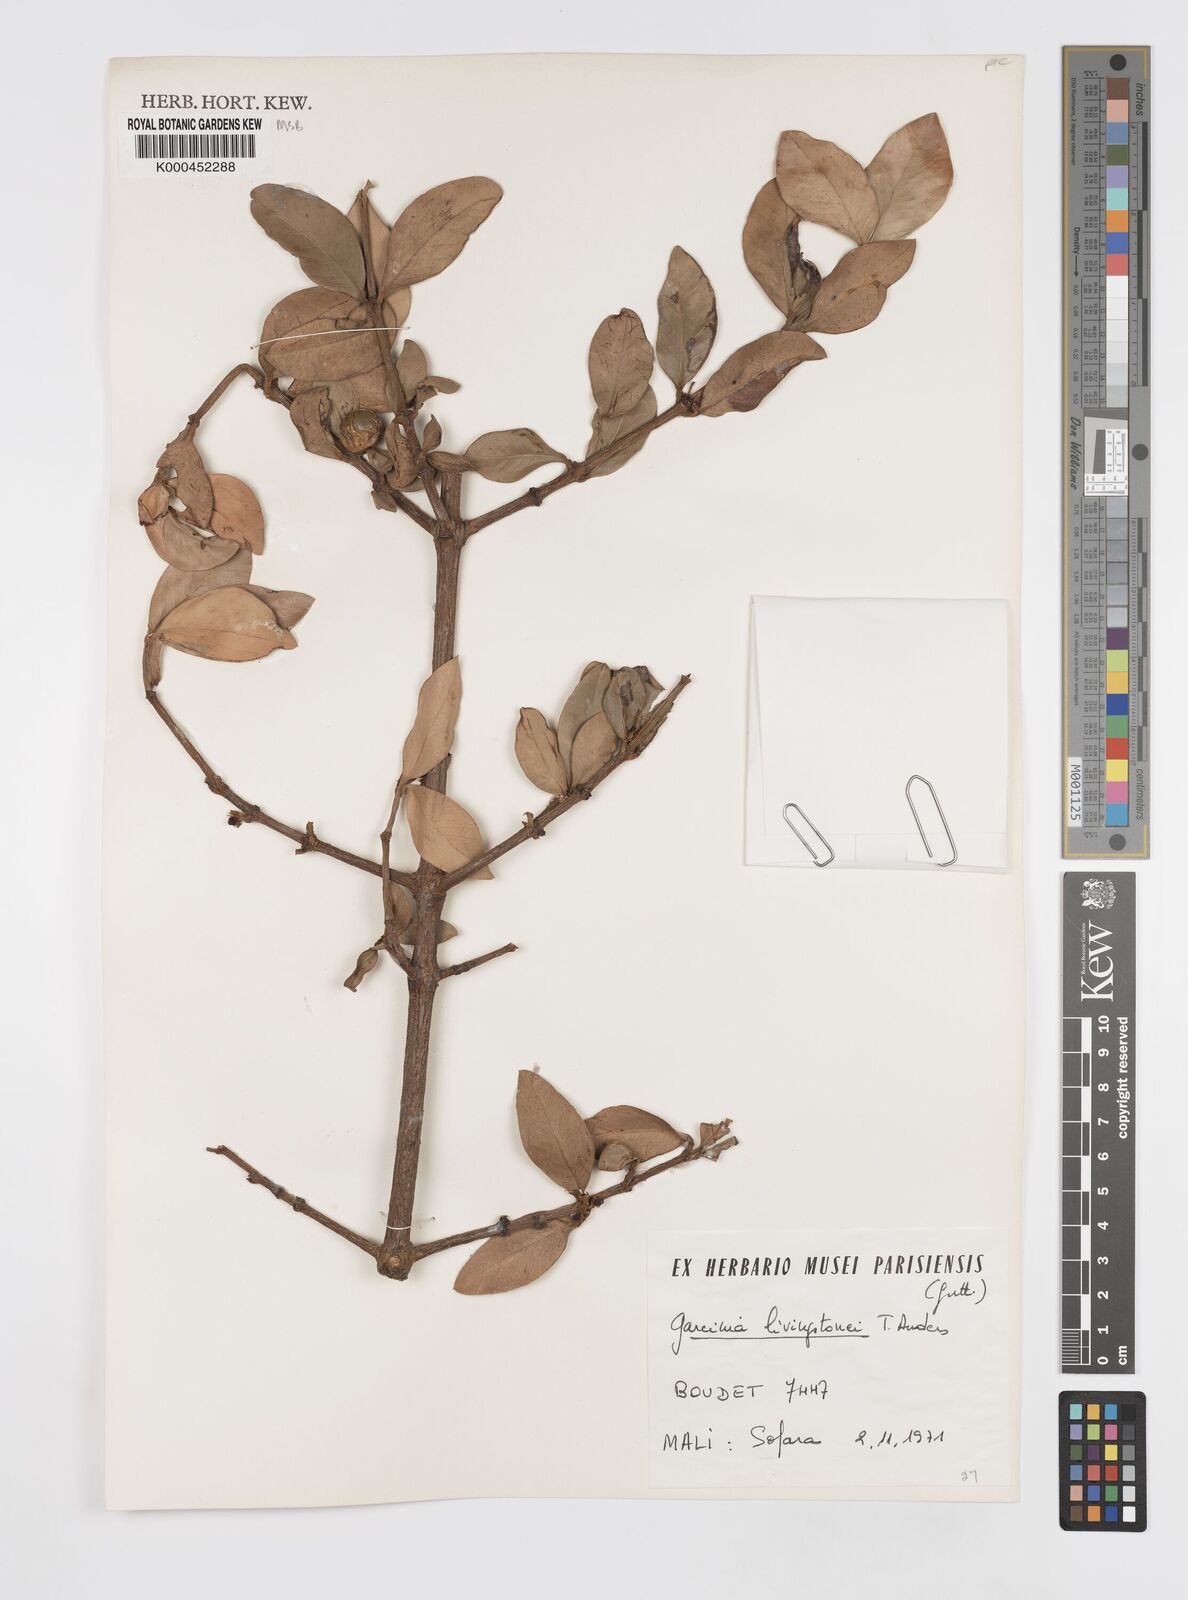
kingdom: Plantae
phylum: Tracheophyta
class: Magnoliopsida
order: Malpighiales
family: Clusiaceae
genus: Garcinia
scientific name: Garcinia livingstonei
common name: African mangosteen
